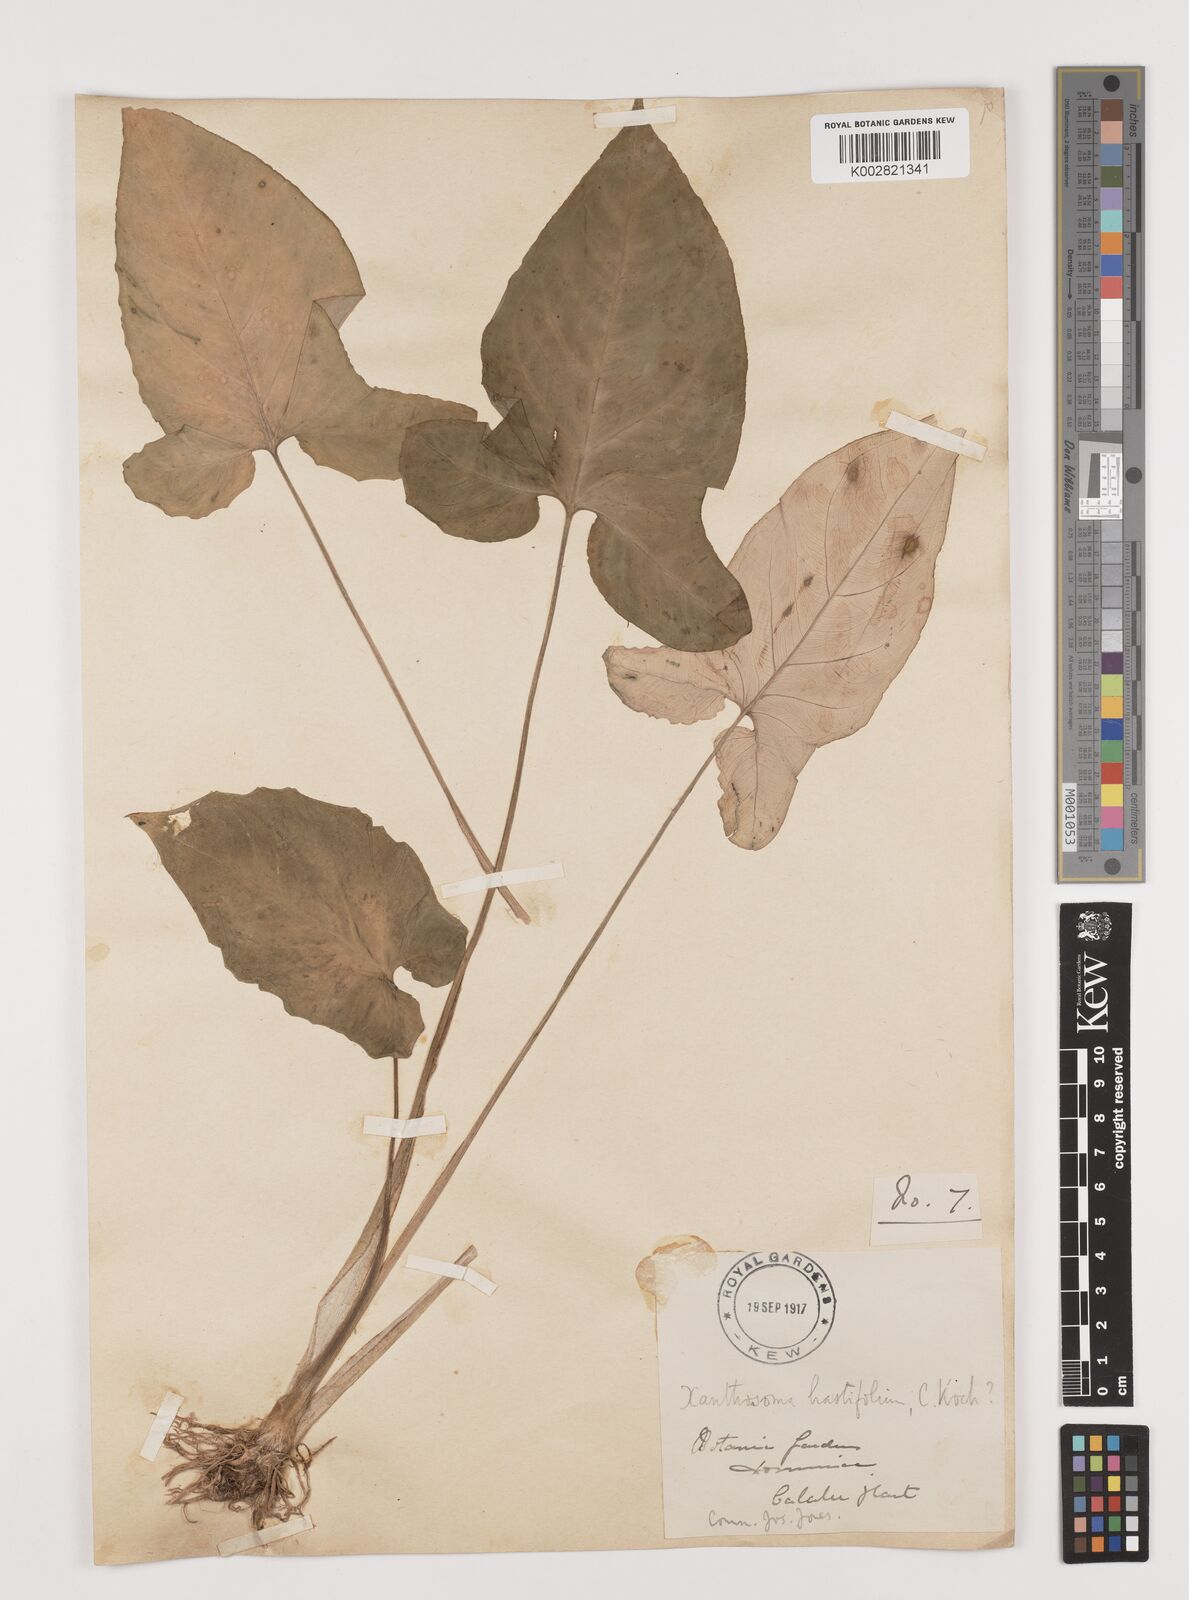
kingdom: Plantae
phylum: Tracheophyta
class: Liliopsida
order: Alismatales
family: Araceae
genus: Xanthosoma
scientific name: Xanthosoma brasiliense
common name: Tahitian-spinach
